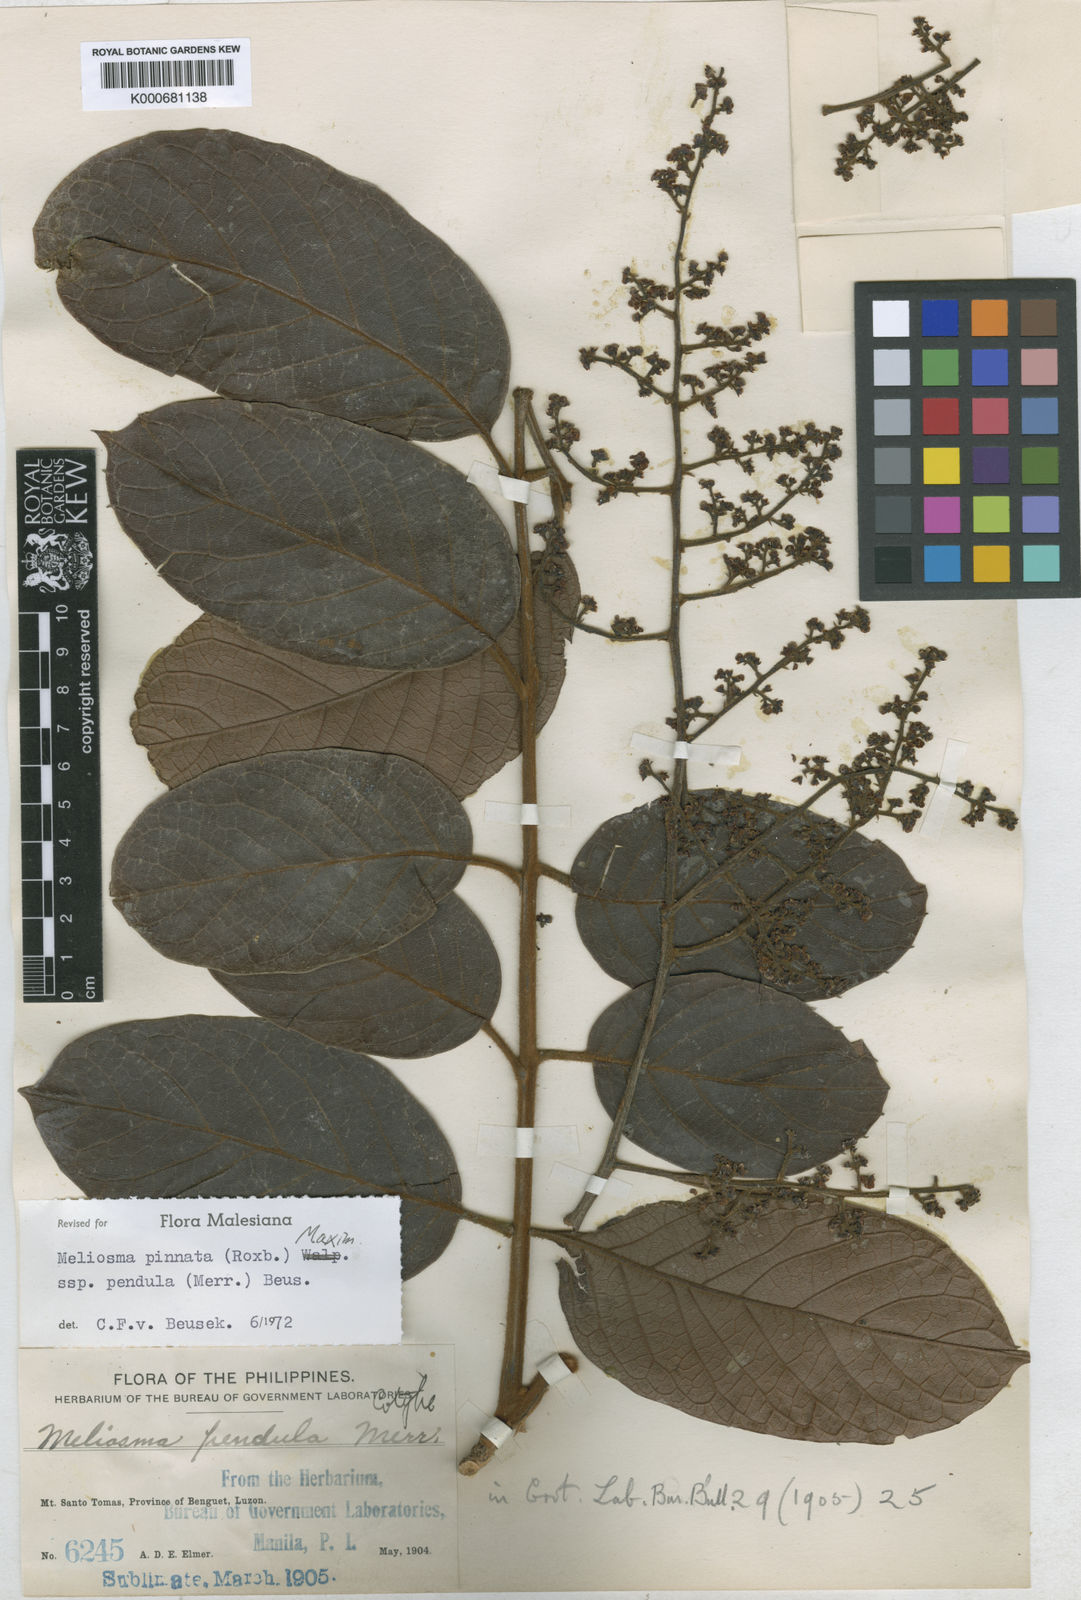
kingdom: Plantae
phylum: Tracheophyta
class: Magnoliopsida
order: Proteales
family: Sabiaceae
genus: Meliosma
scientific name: Meliosma pinnata
